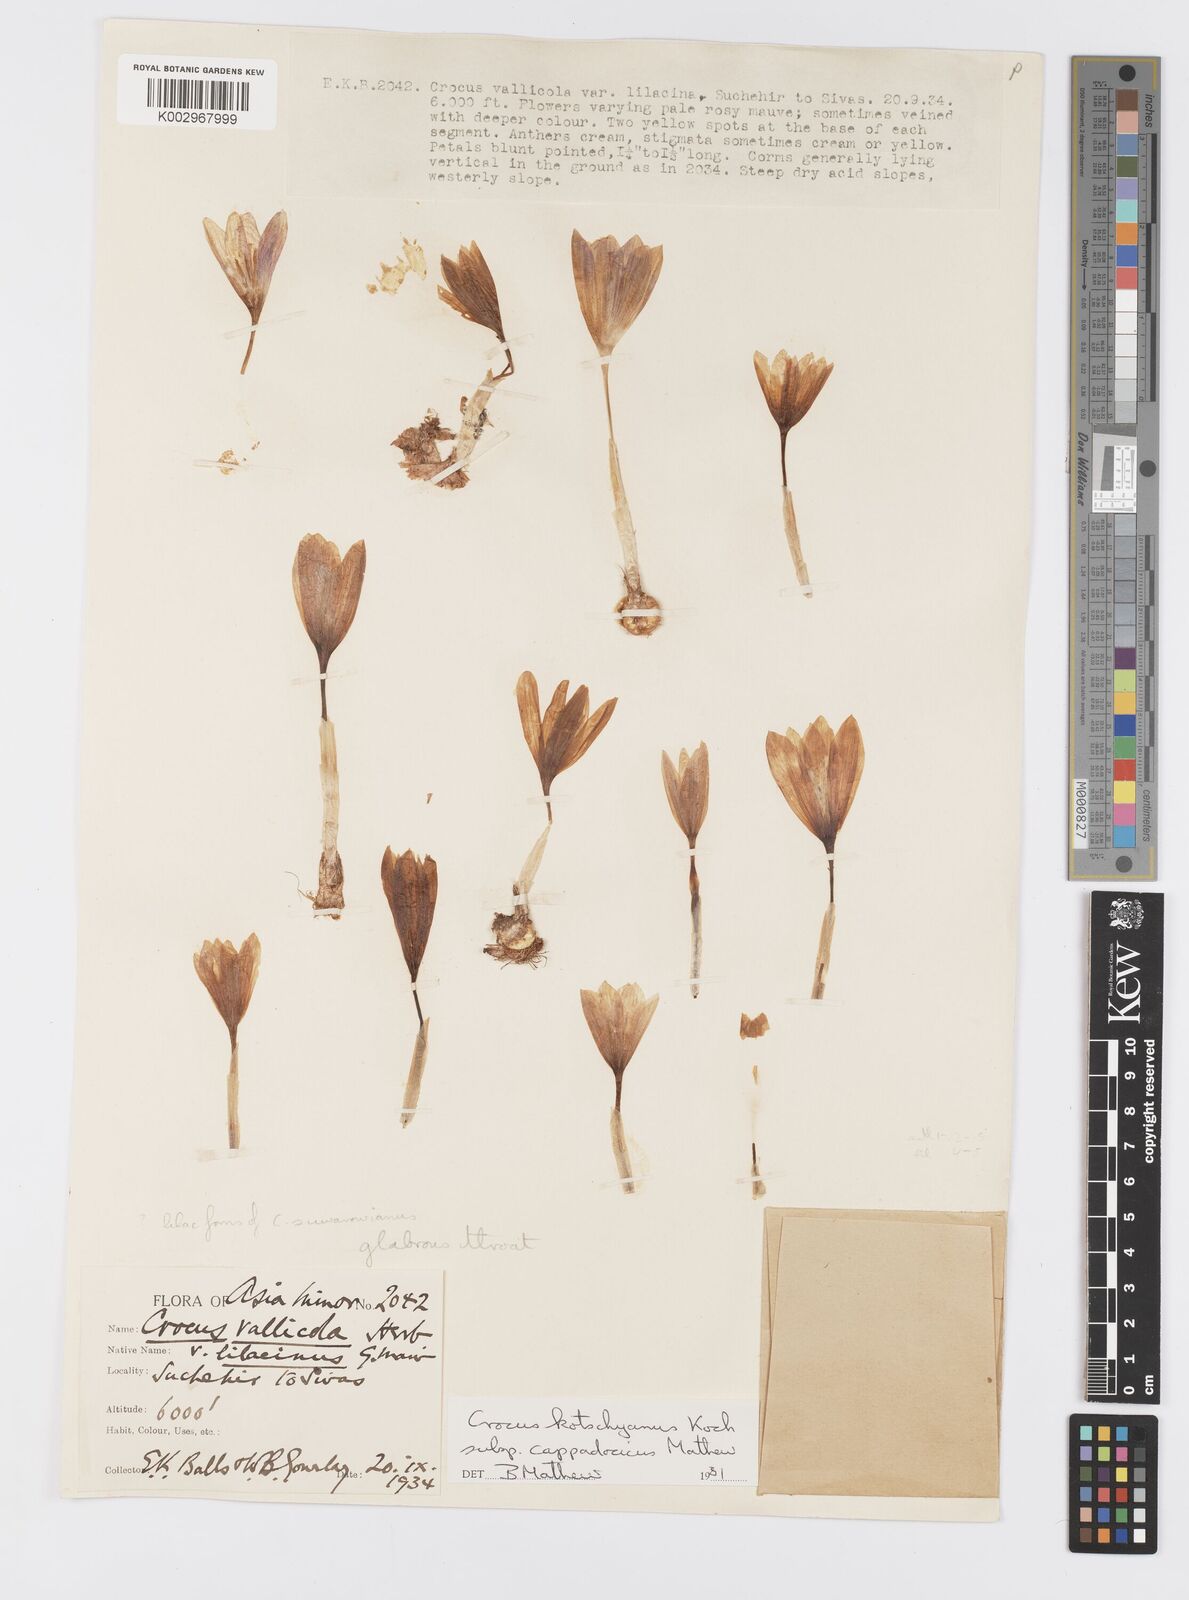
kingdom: Plantae
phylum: Tracheophyta
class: Liliopsida
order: Asparagales
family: Iridaceae
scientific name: Iridaceae
